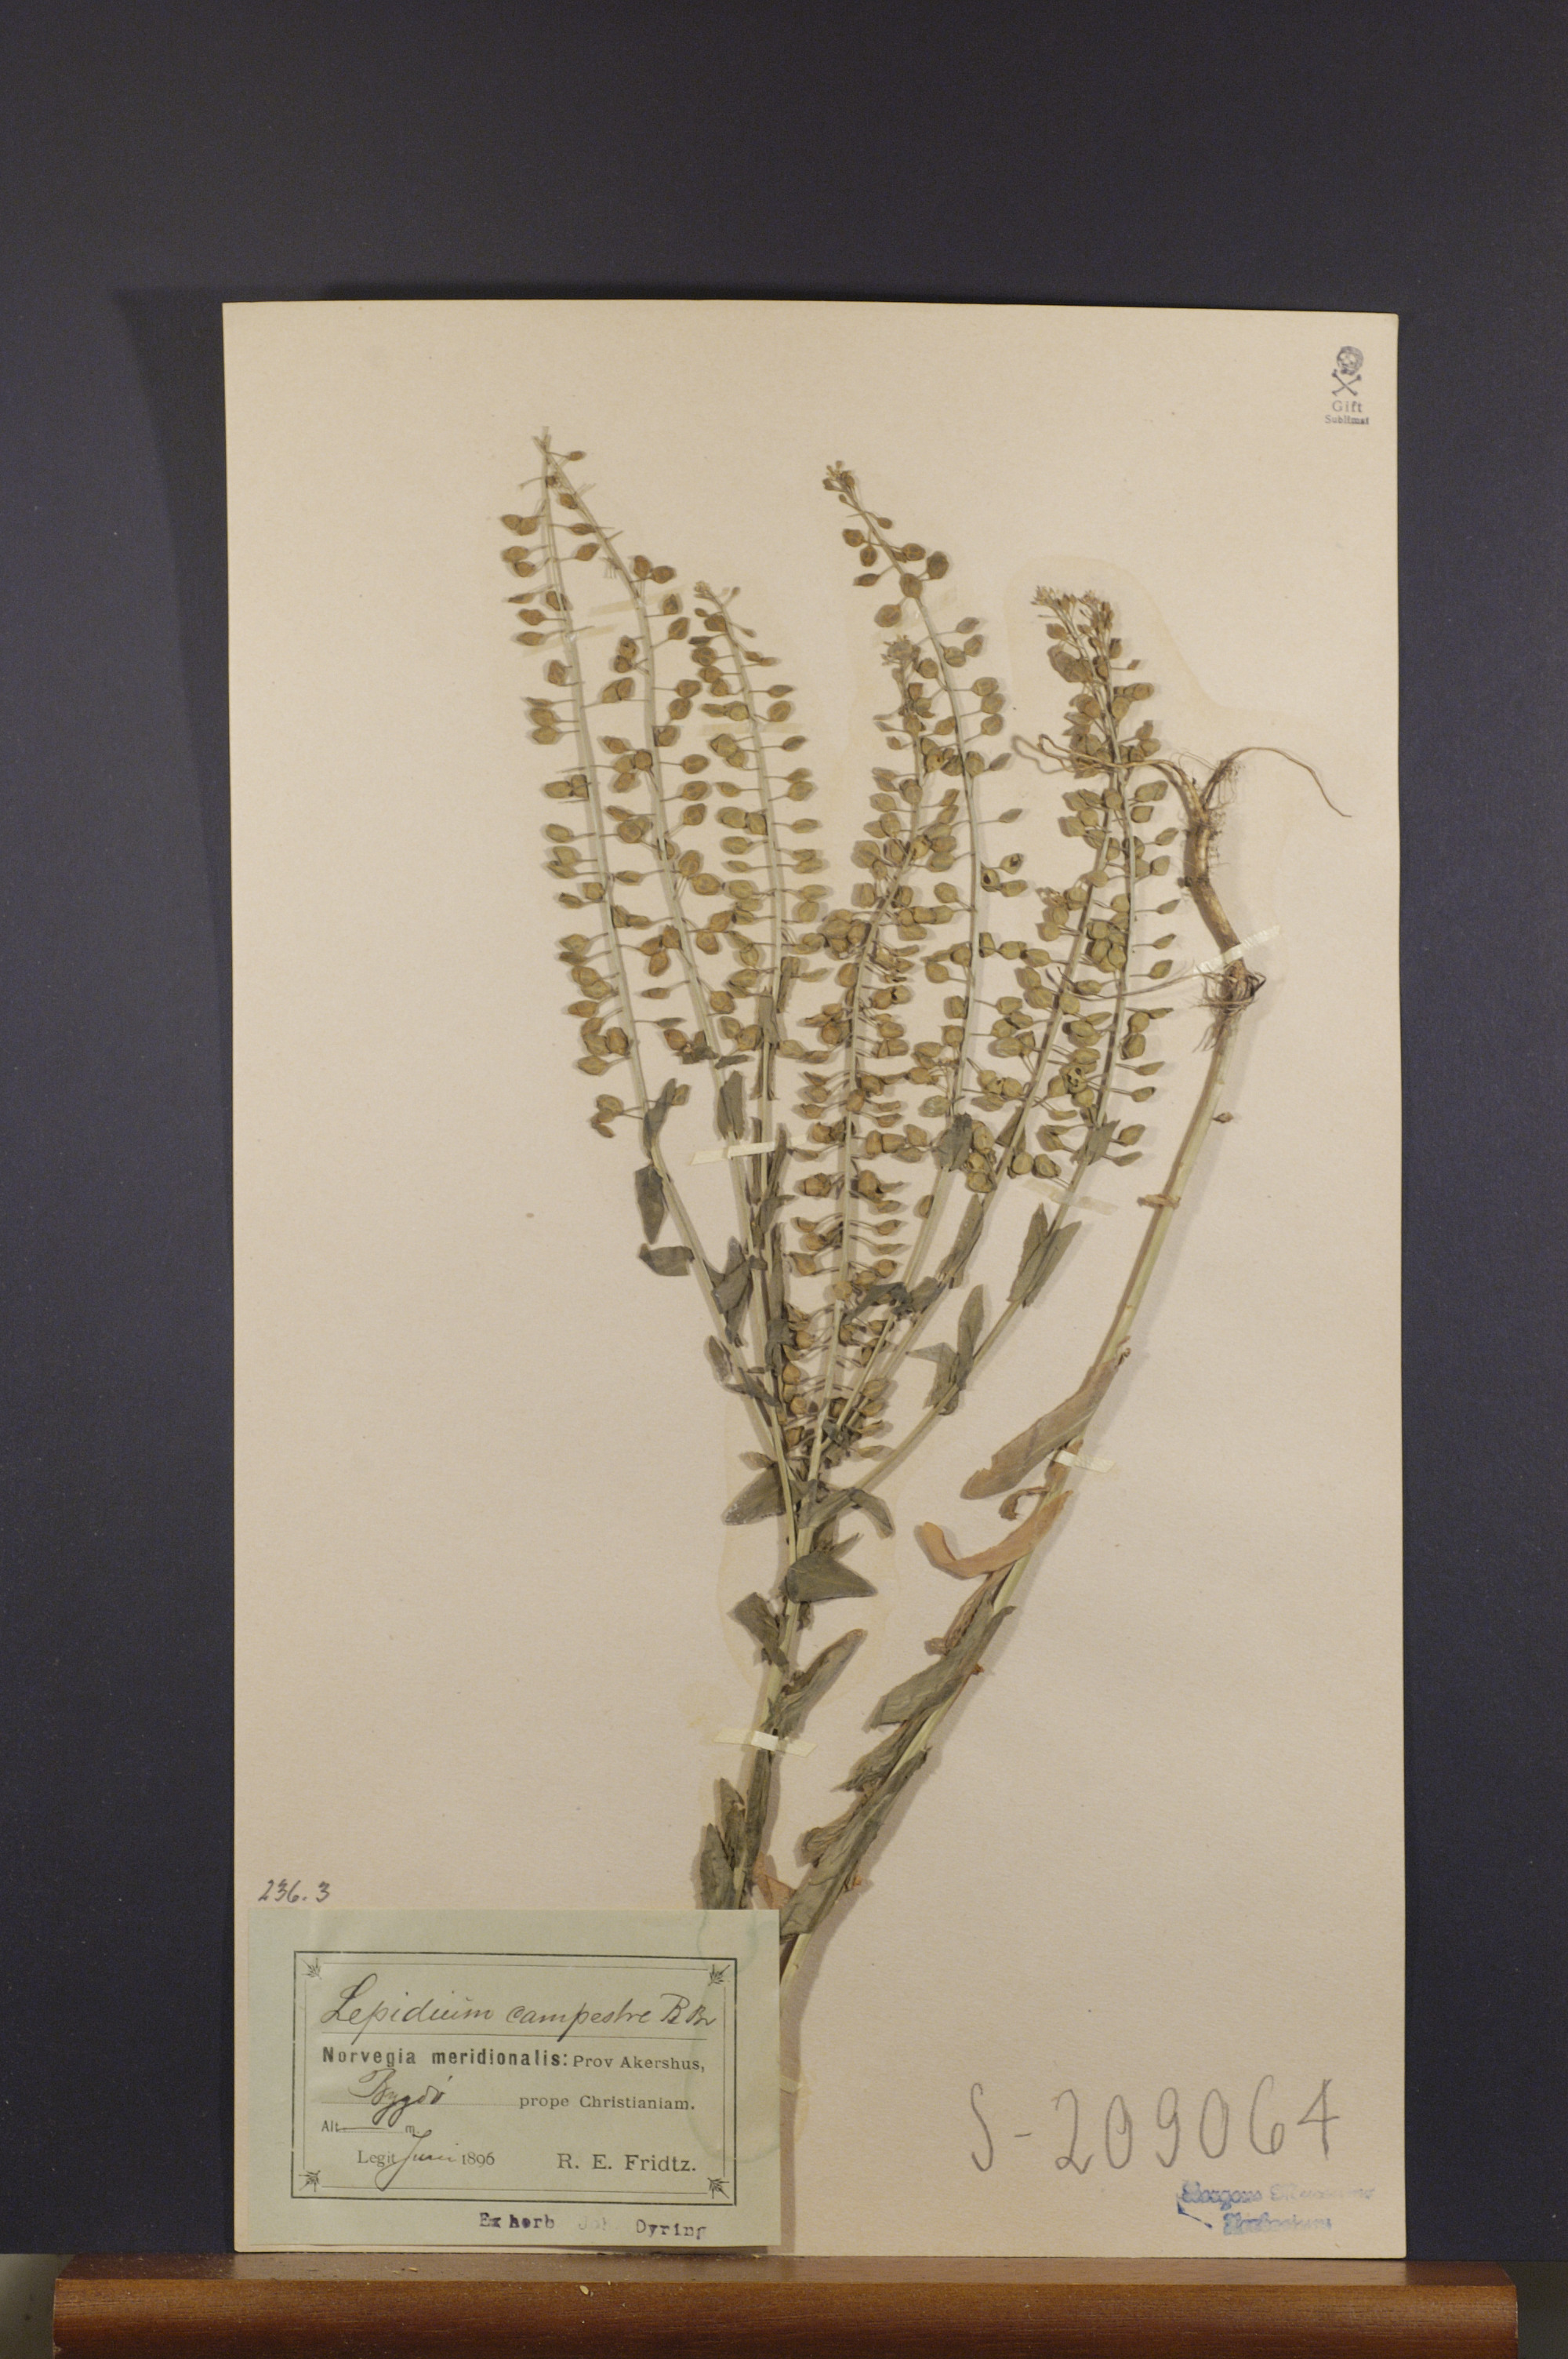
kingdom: Plantae
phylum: Tracheophyta
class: Magnoliopsida
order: Brassicales
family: Brassicaceae
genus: Lepidium
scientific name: Lepidium campestre
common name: Field pepperwort
